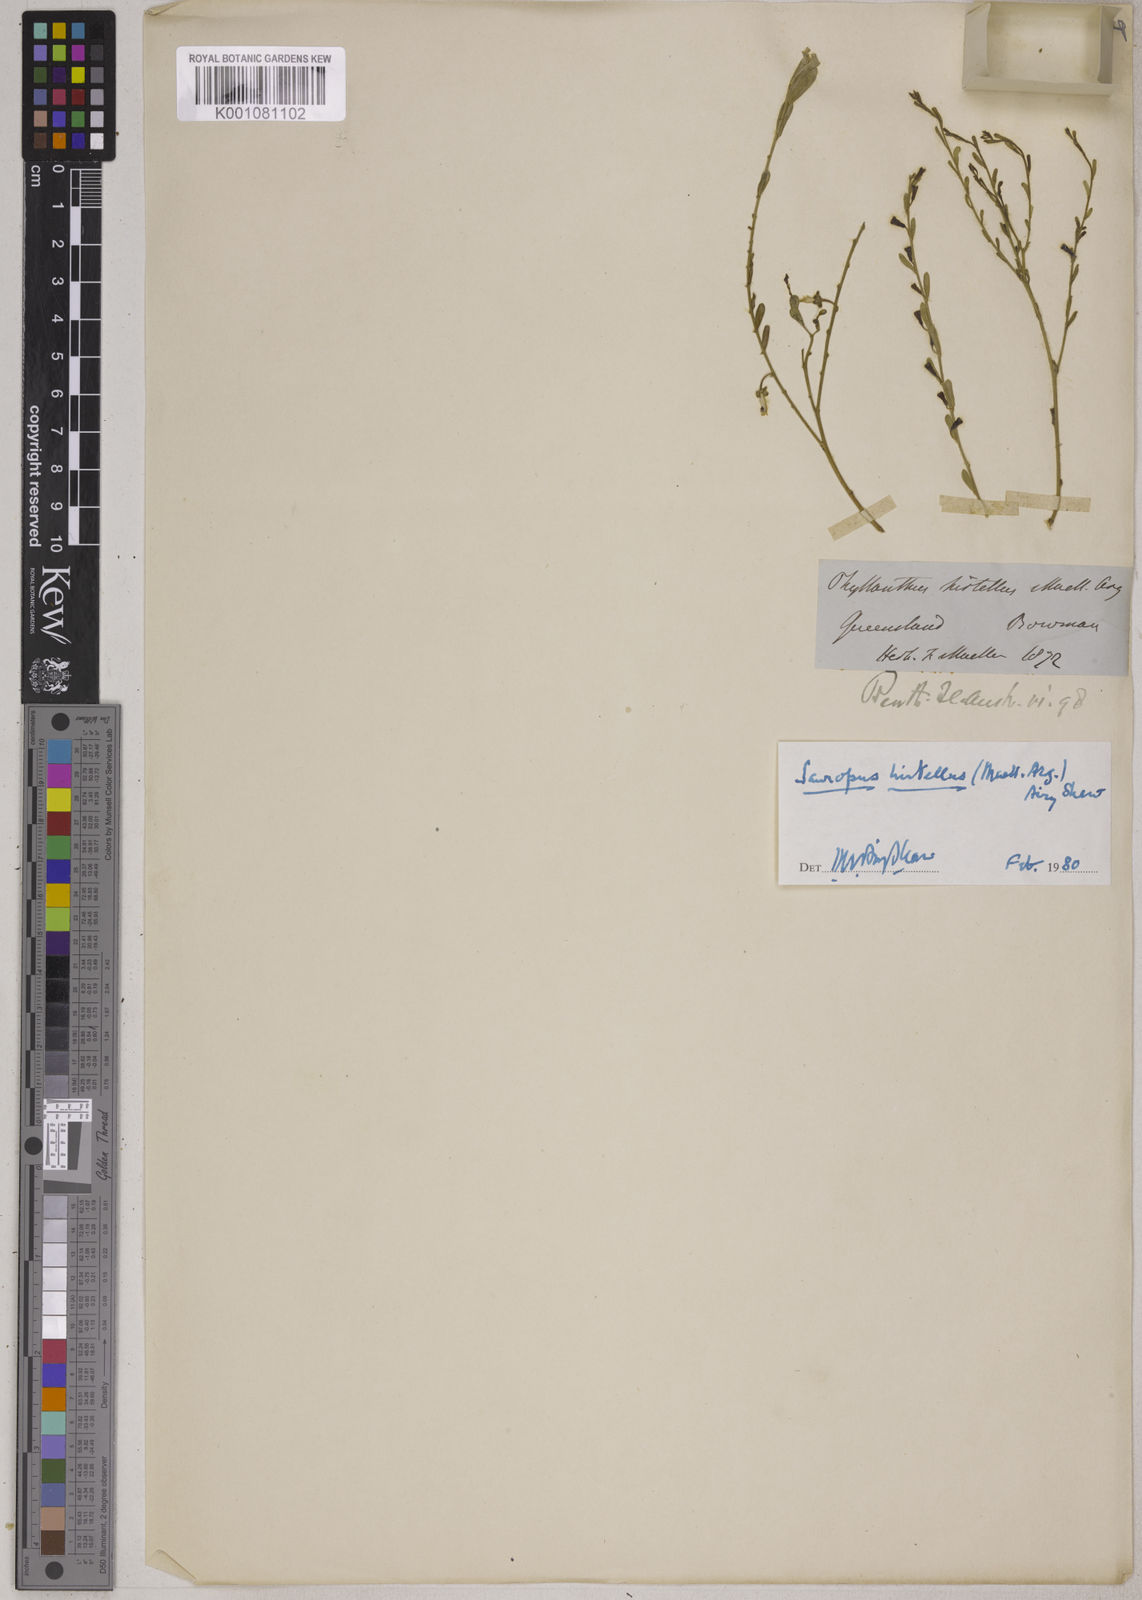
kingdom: Plantae
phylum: Tracheophyta
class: Magnoliopsida
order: Malpighiales
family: Phyllanthaceae
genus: Synostemon
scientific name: Synostemon hirtellus
